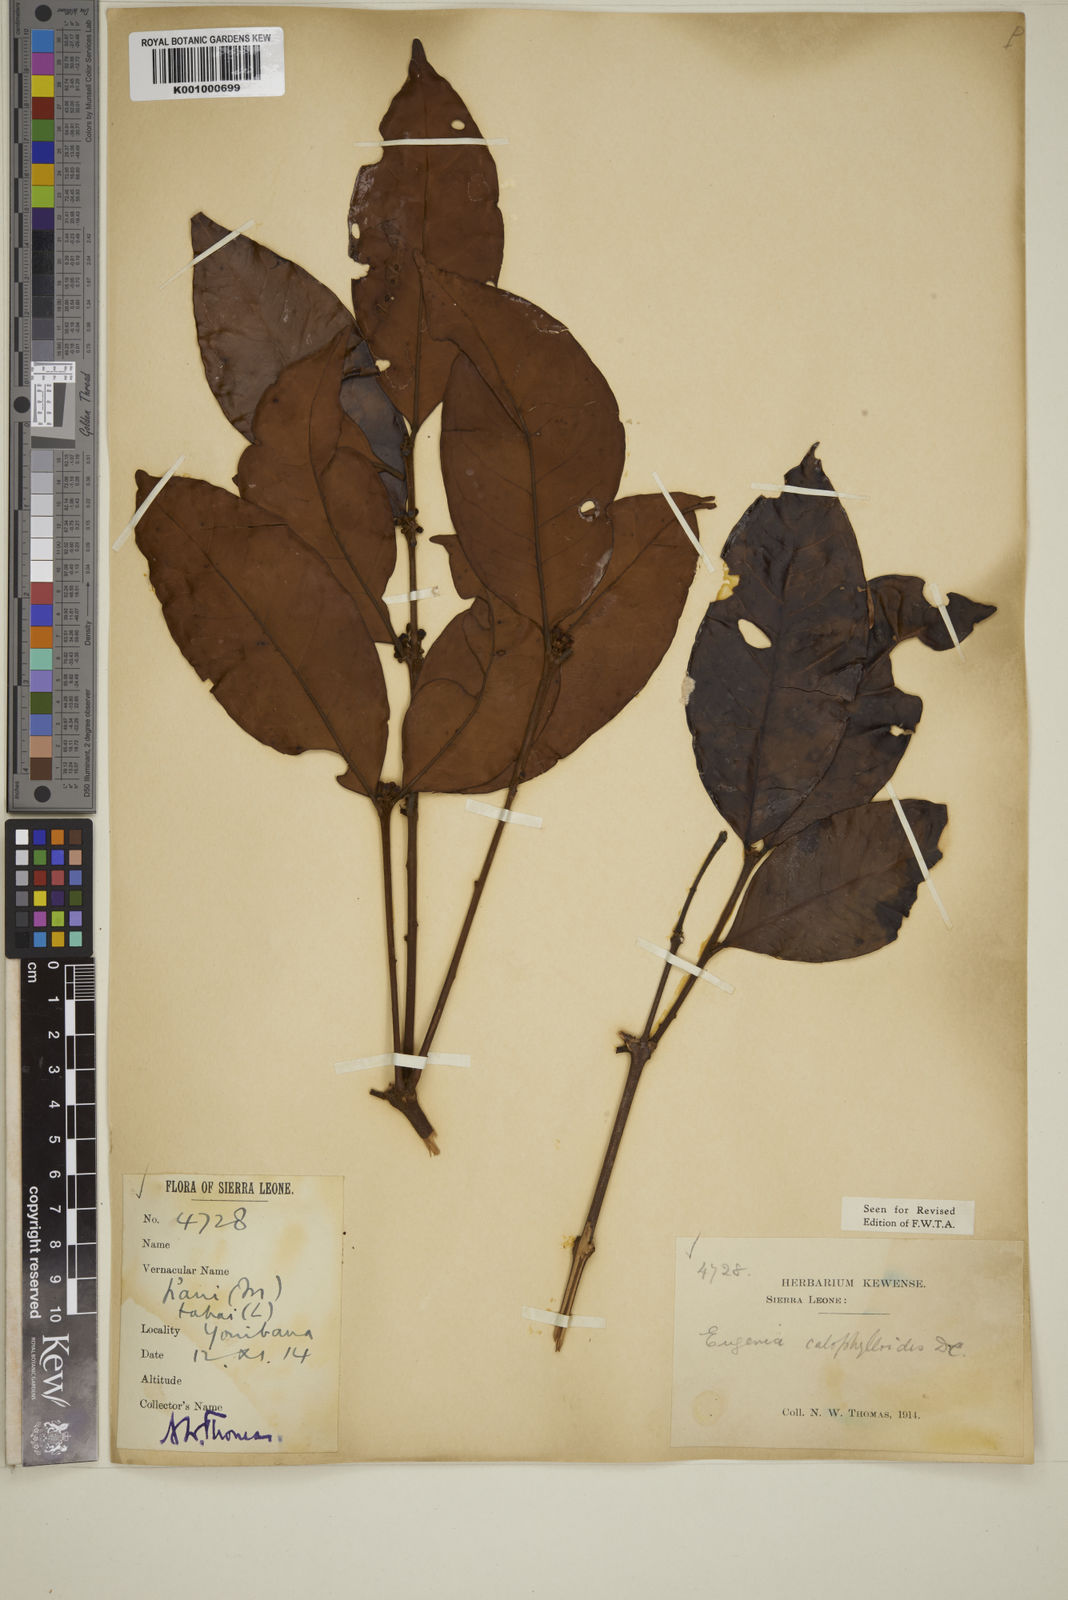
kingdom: Plantae
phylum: Tracheophyta
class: Magnoliopsida
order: Myrtales
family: Myrtaceae
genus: Eugenia
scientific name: Eugenia calophylloides
